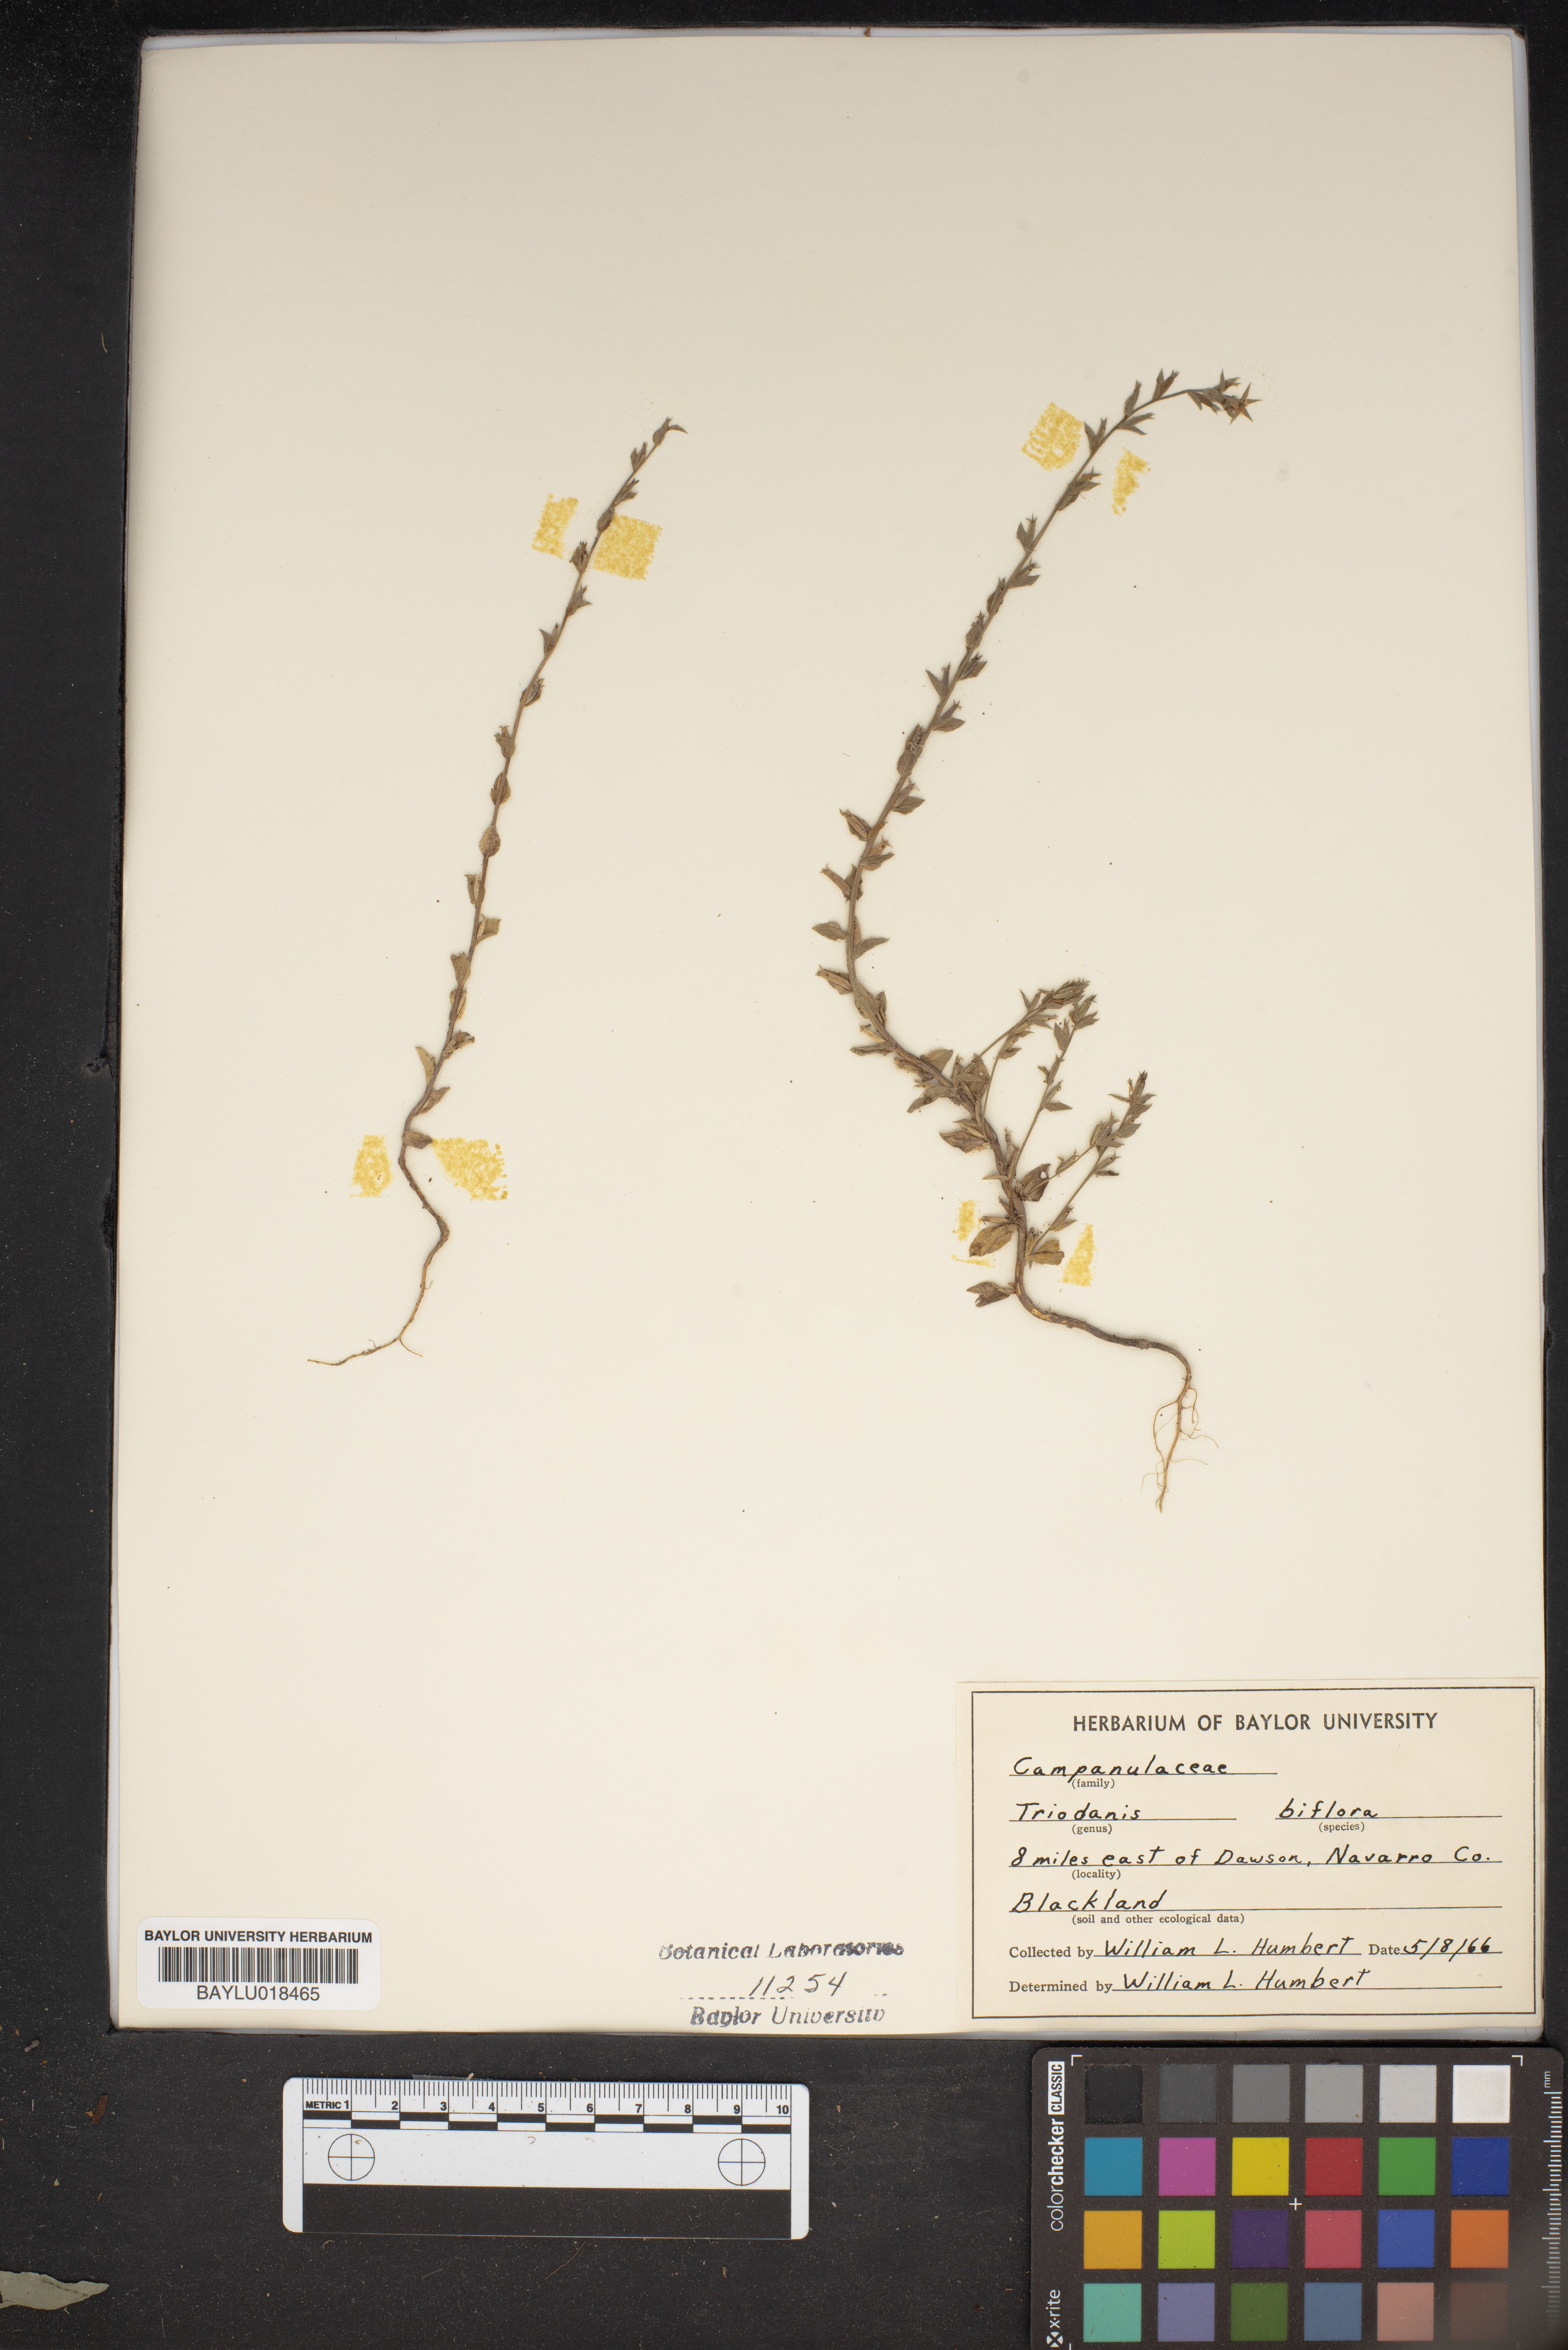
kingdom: Plantae
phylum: Tracheophyta
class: Magnoliopsida
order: Asterales
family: Campanulaceae
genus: Triodanis
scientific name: Triodanis perfoliata
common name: Clasping venus' looking-glass
